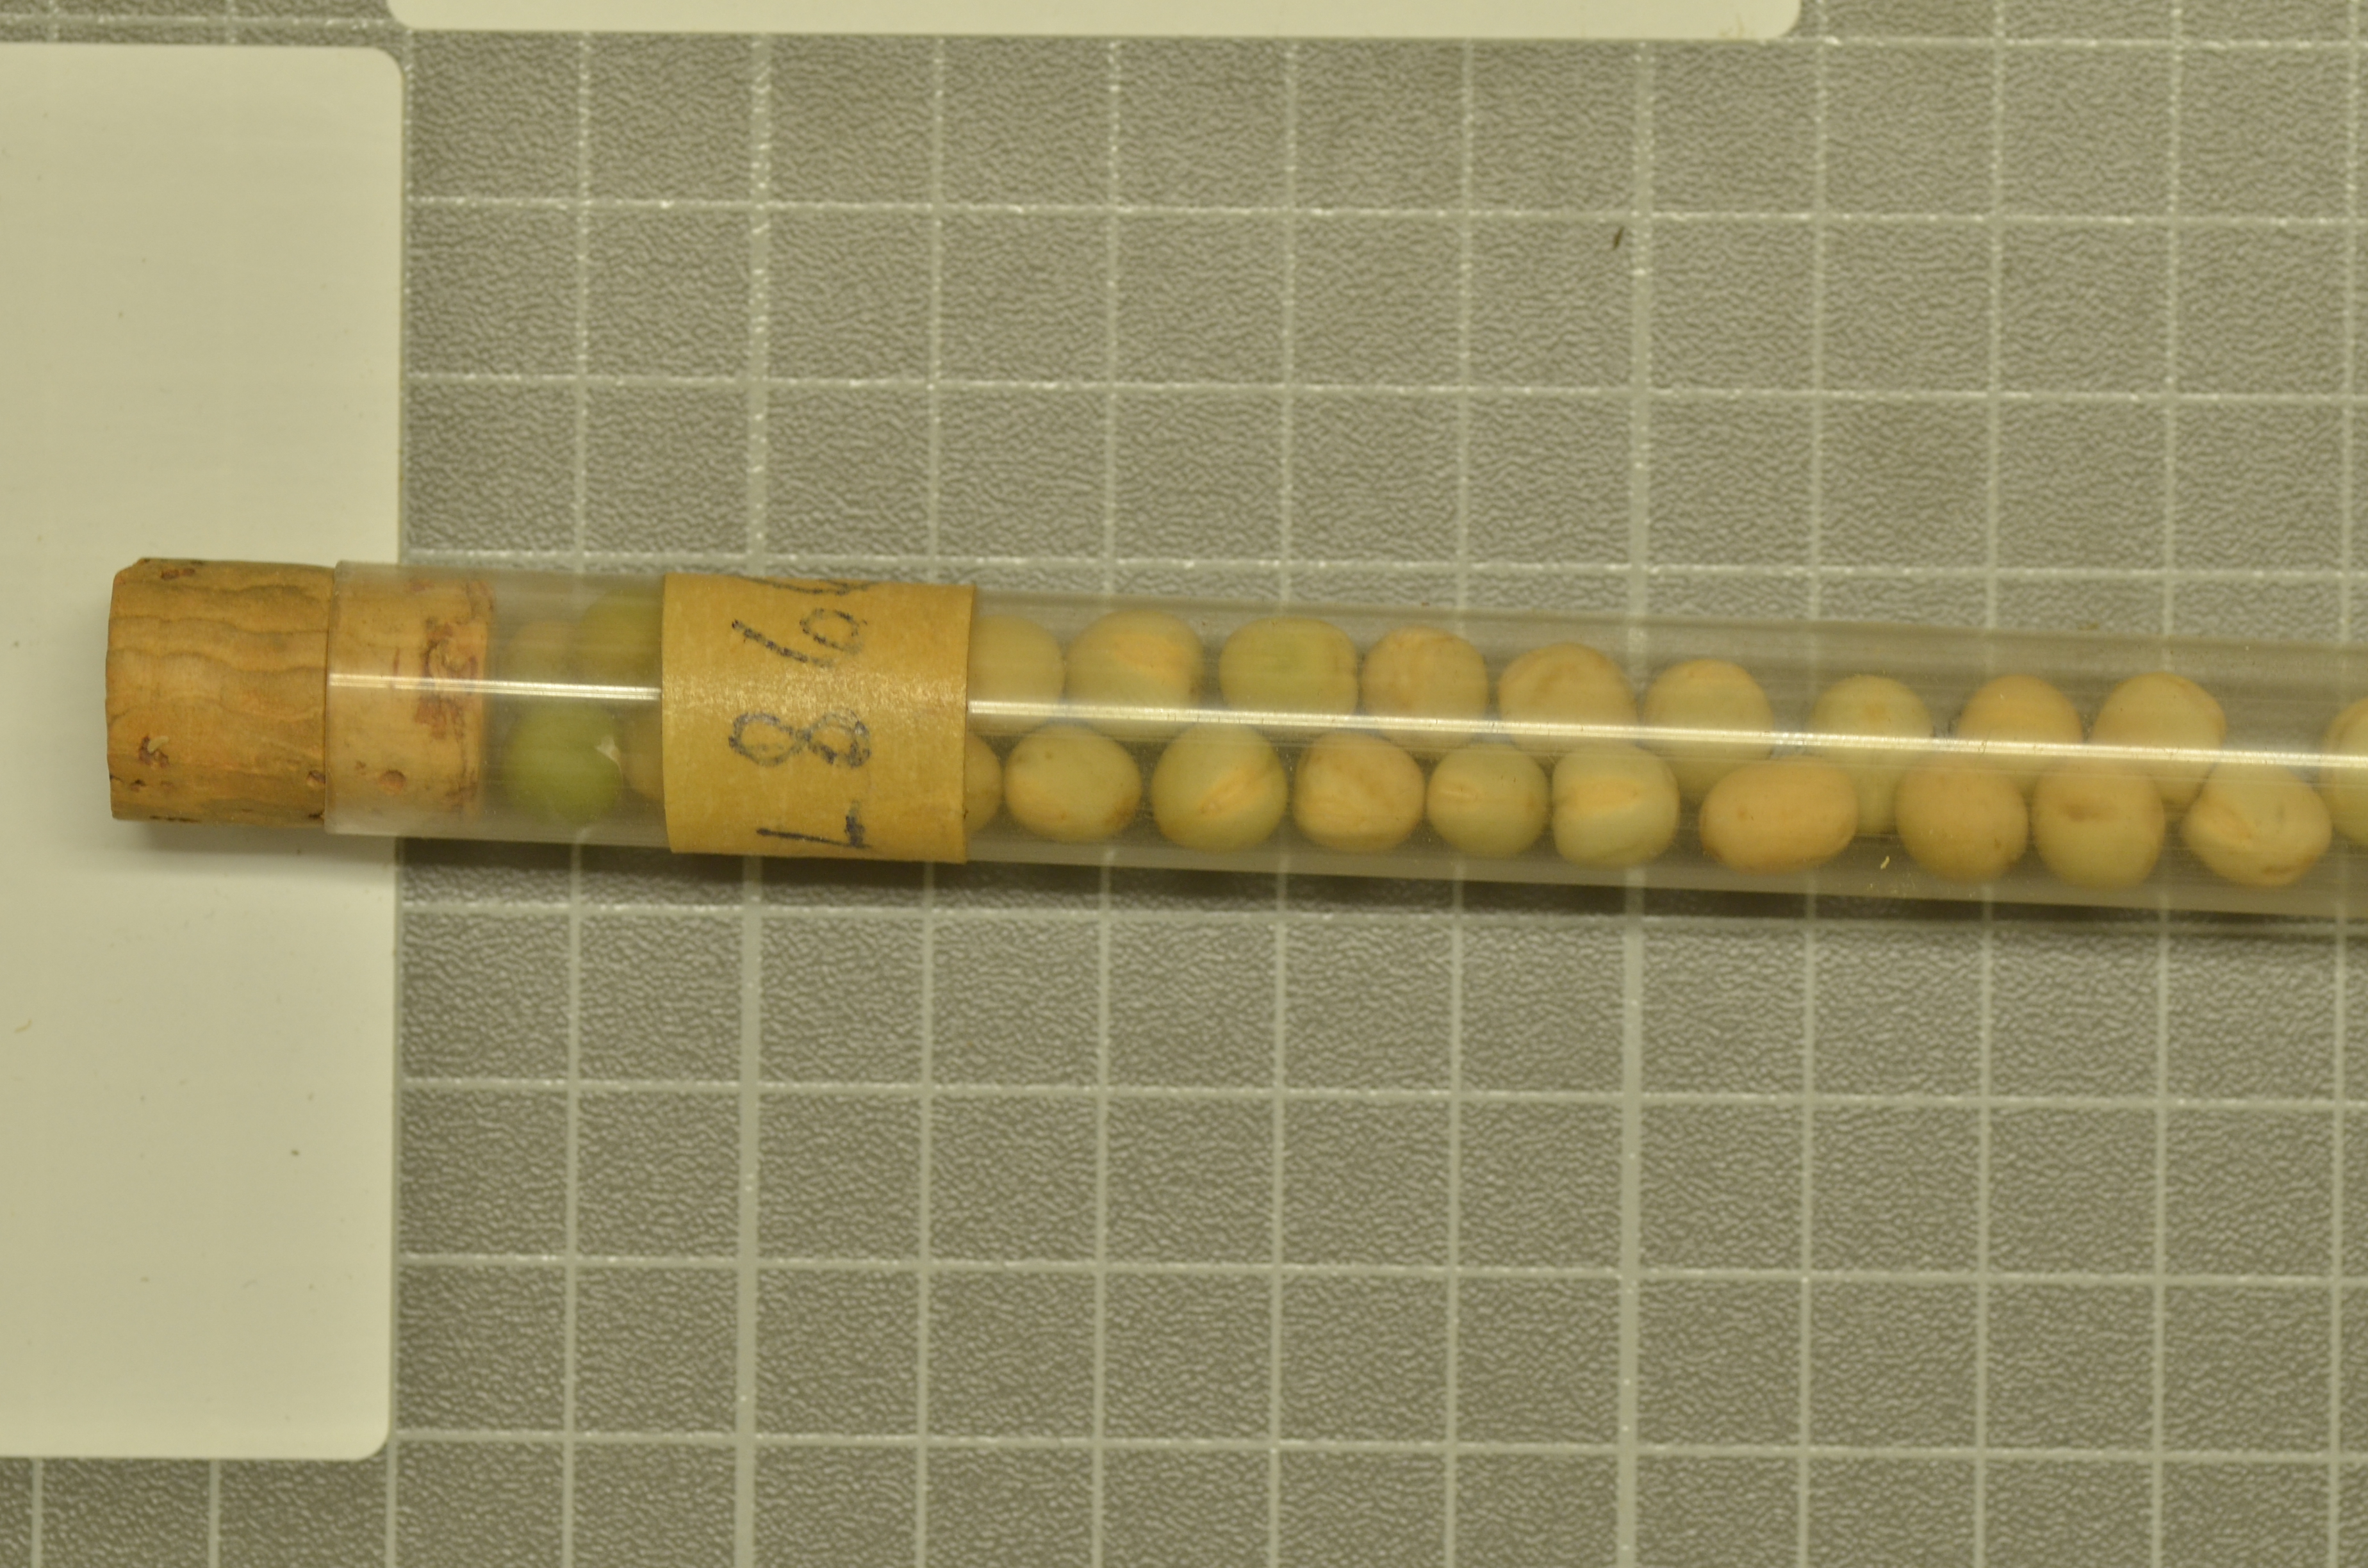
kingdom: Plantae
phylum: Tracheophyta
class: Magnoliopsida
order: Fabales
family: Fabaceae
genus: Lathyrus
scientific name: Lathyrus oleraceus
